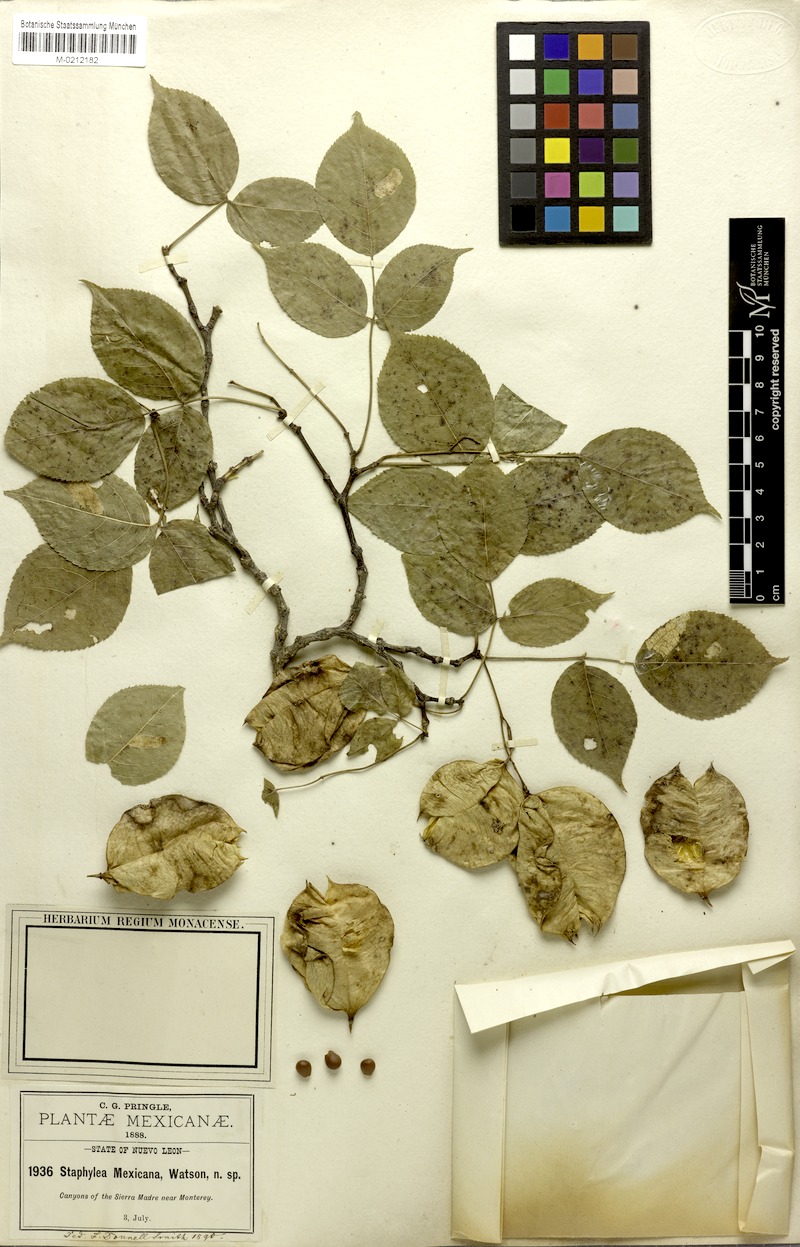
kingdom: Plantae
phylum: Tracheophyta
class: Magnoliopsida
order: Crossosomatales
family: Staphyleaceae
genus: Staphylea
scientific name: Staphylea mexicana
